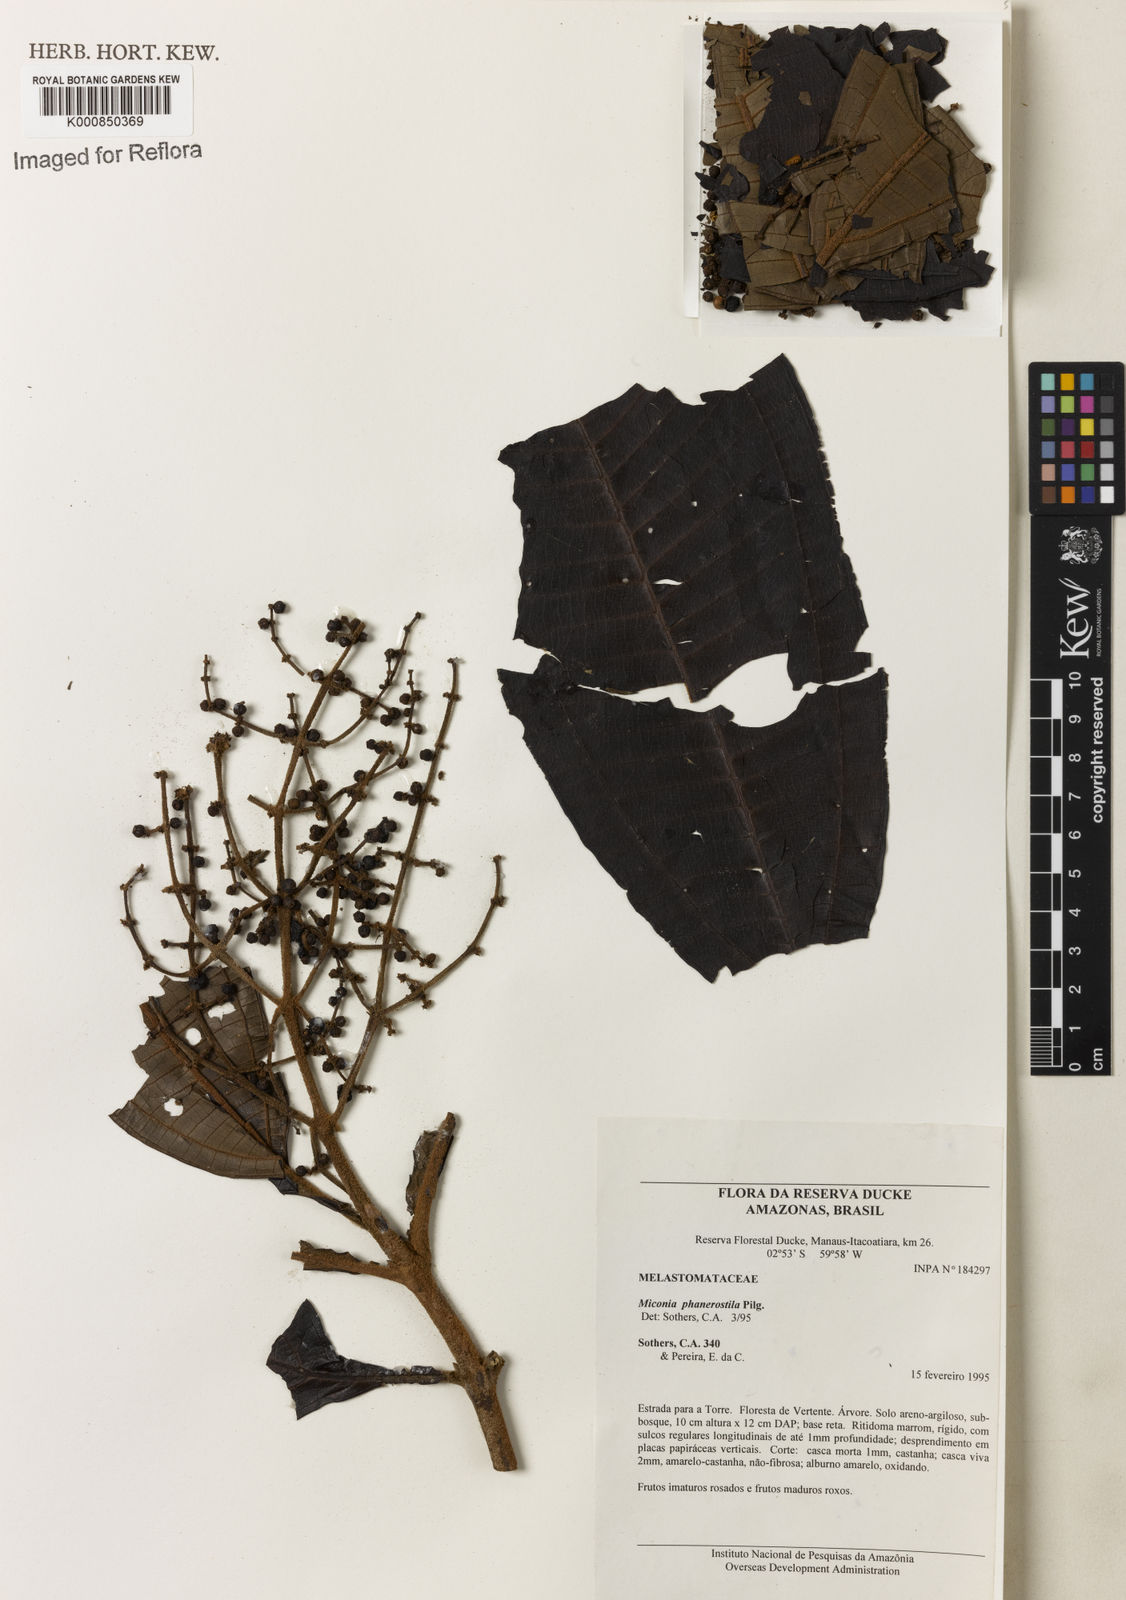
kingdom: Plantae
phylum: Tracheophyta
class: Magnoliopsida
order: Myrtales
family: Melastomataceae
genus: Miconia
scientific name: Miconia phanerostila
